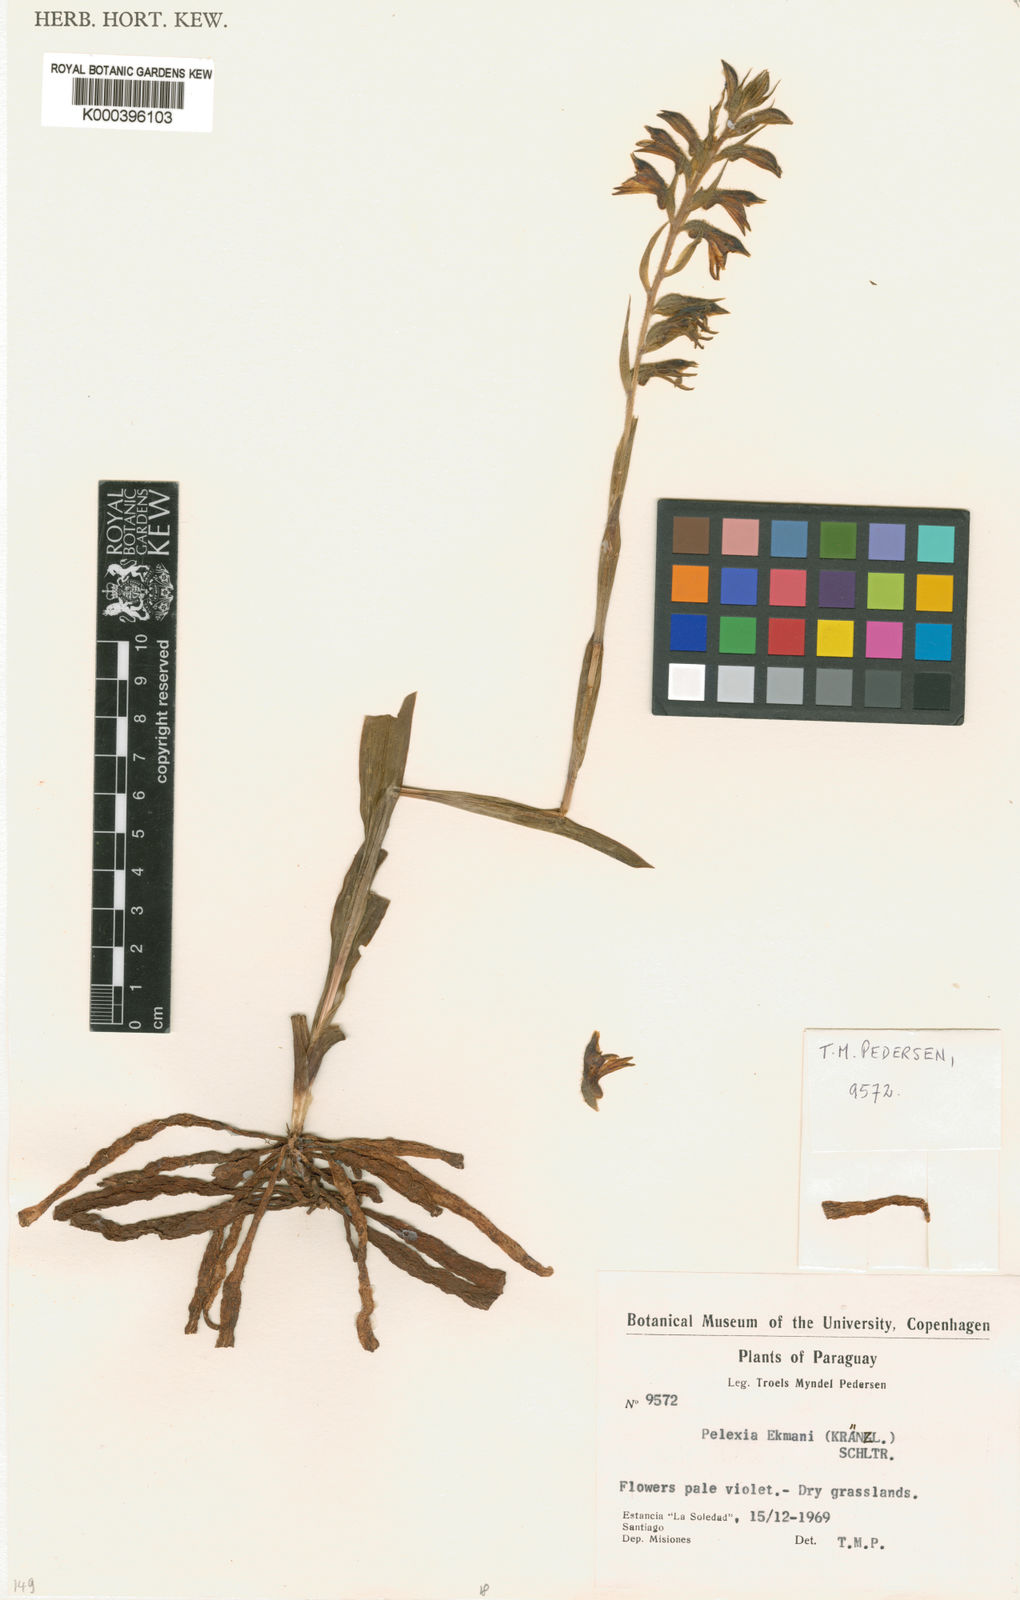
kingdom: Plantae
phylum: Tracheophyta
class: Liliopsida
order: Asparagales
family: Orchidaceae
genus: Pelexia
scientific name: Pelexia ekmanii
